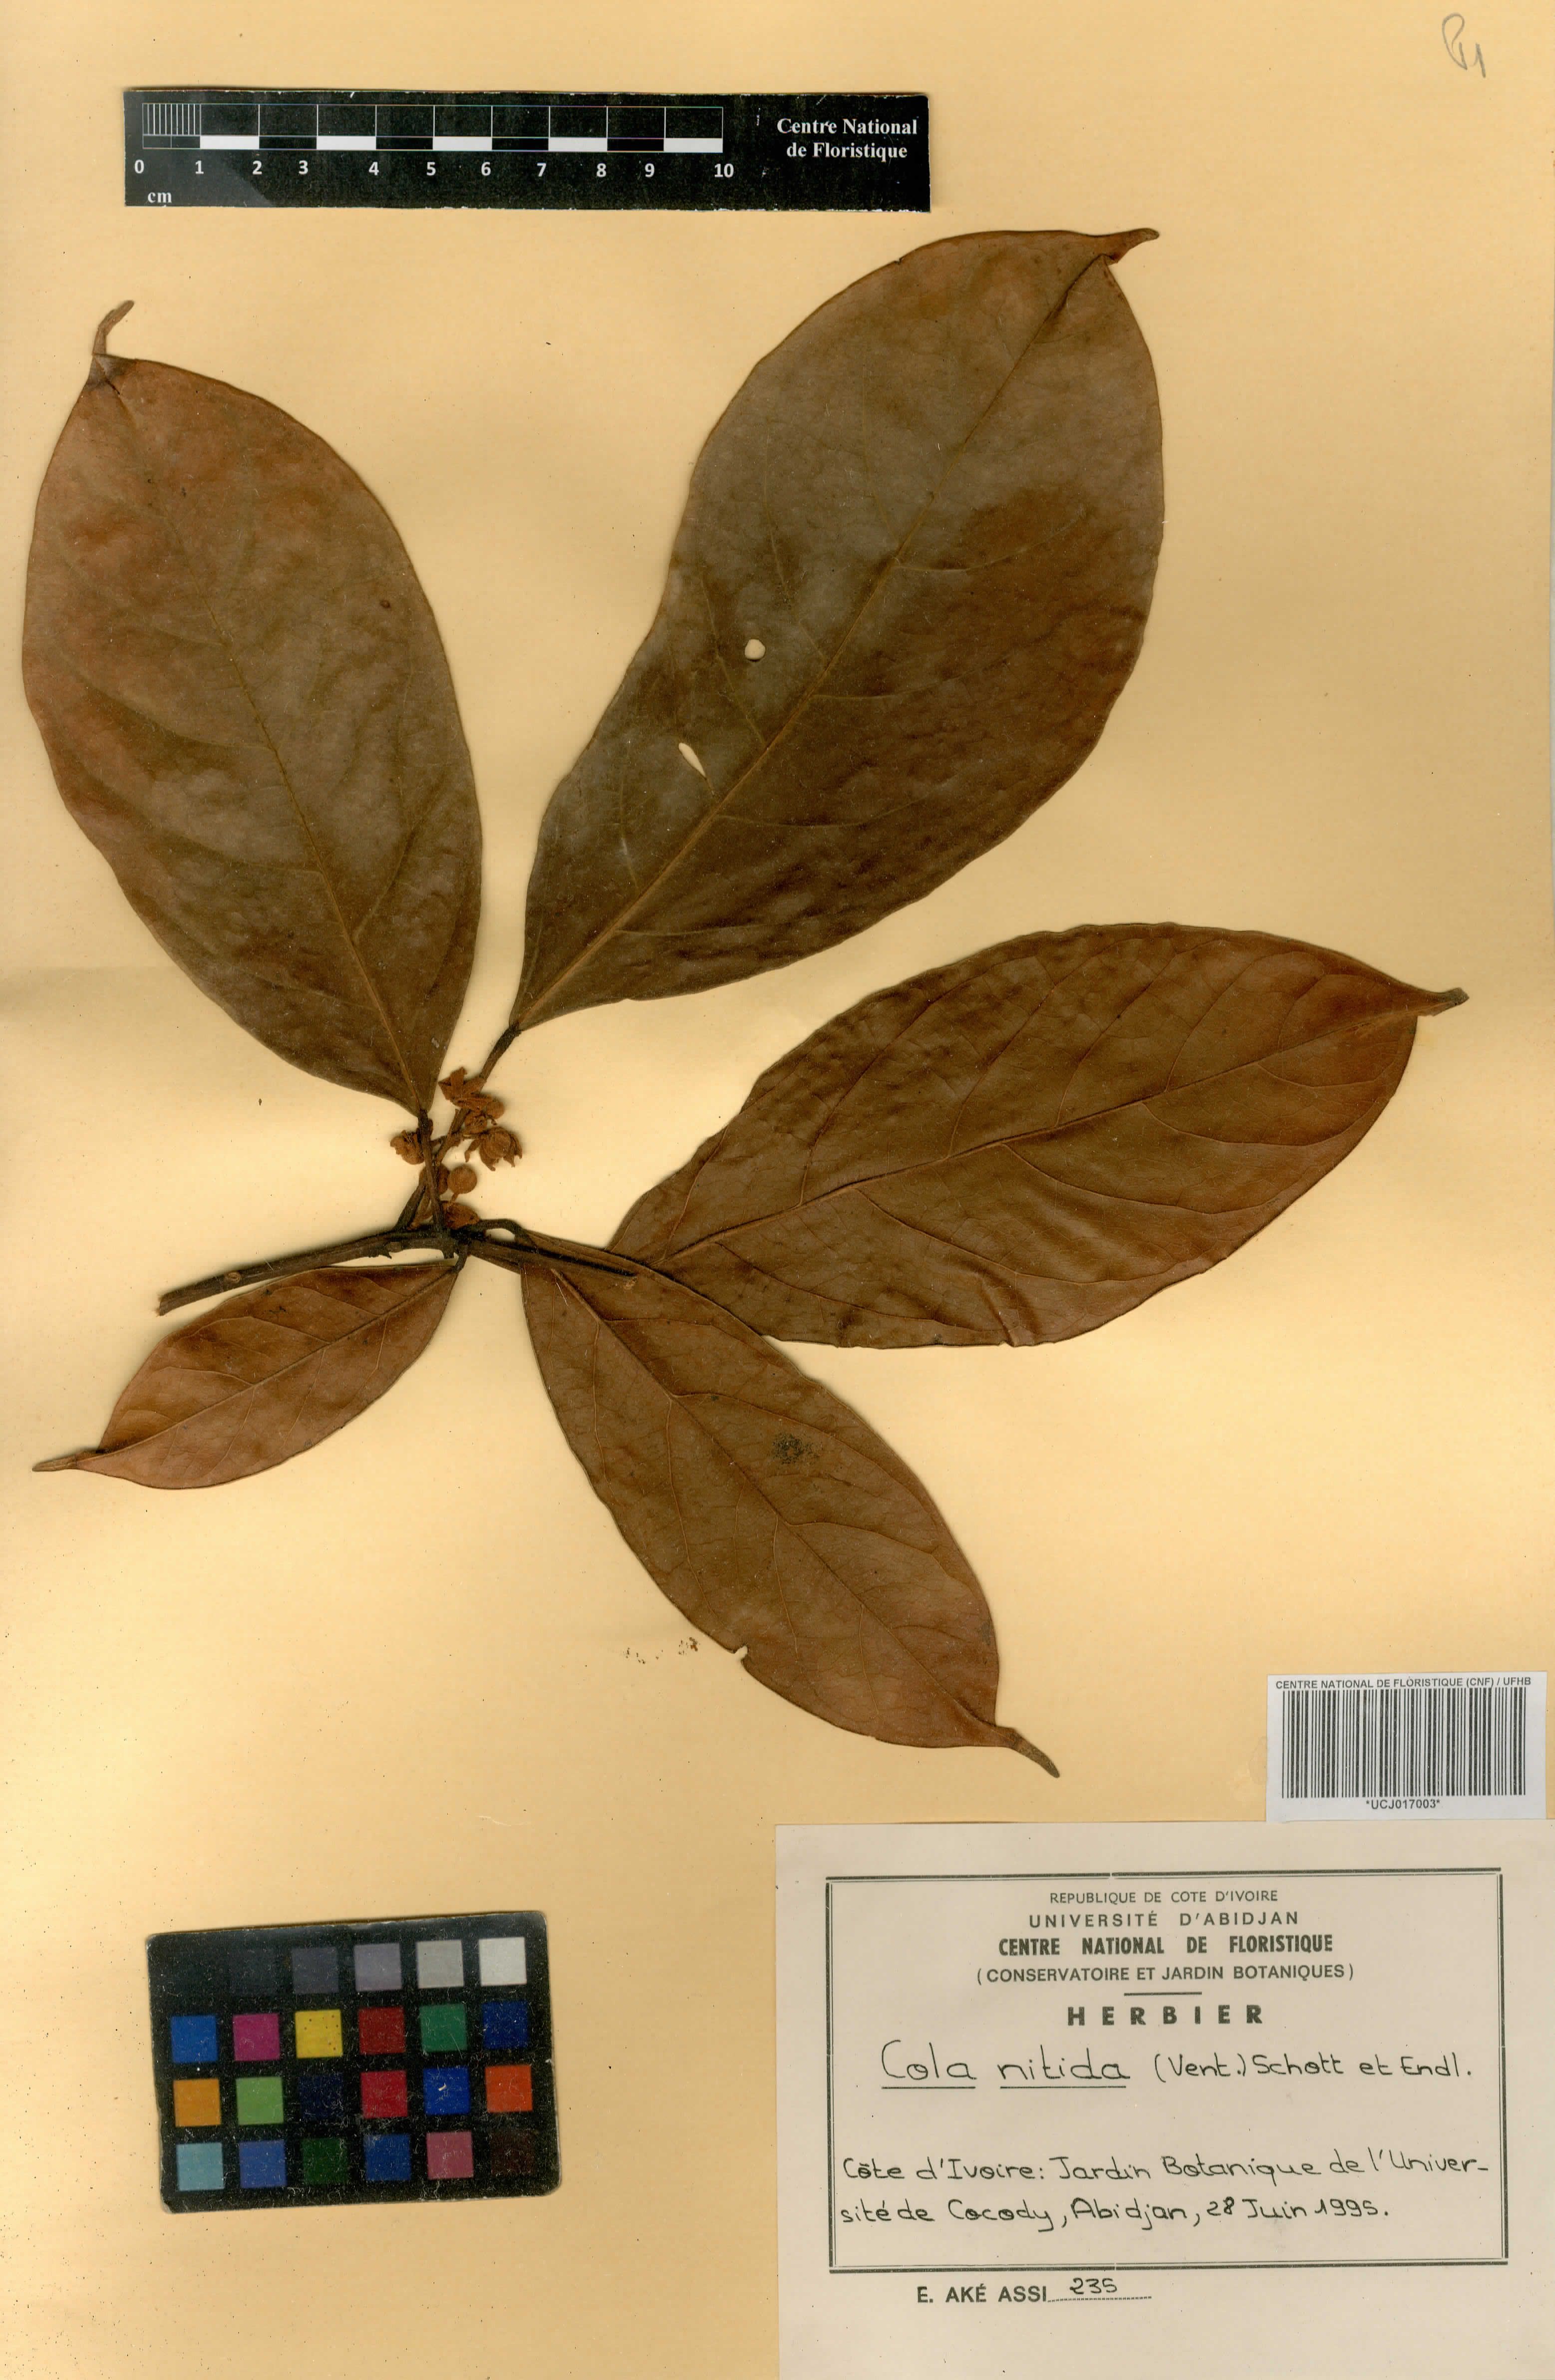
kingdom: Plantae
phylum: Tracheophyta
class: Magnoliopsida
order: Malvales
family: Malvaceae
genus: Cola
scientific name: Cola nitida
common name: Kola nut
